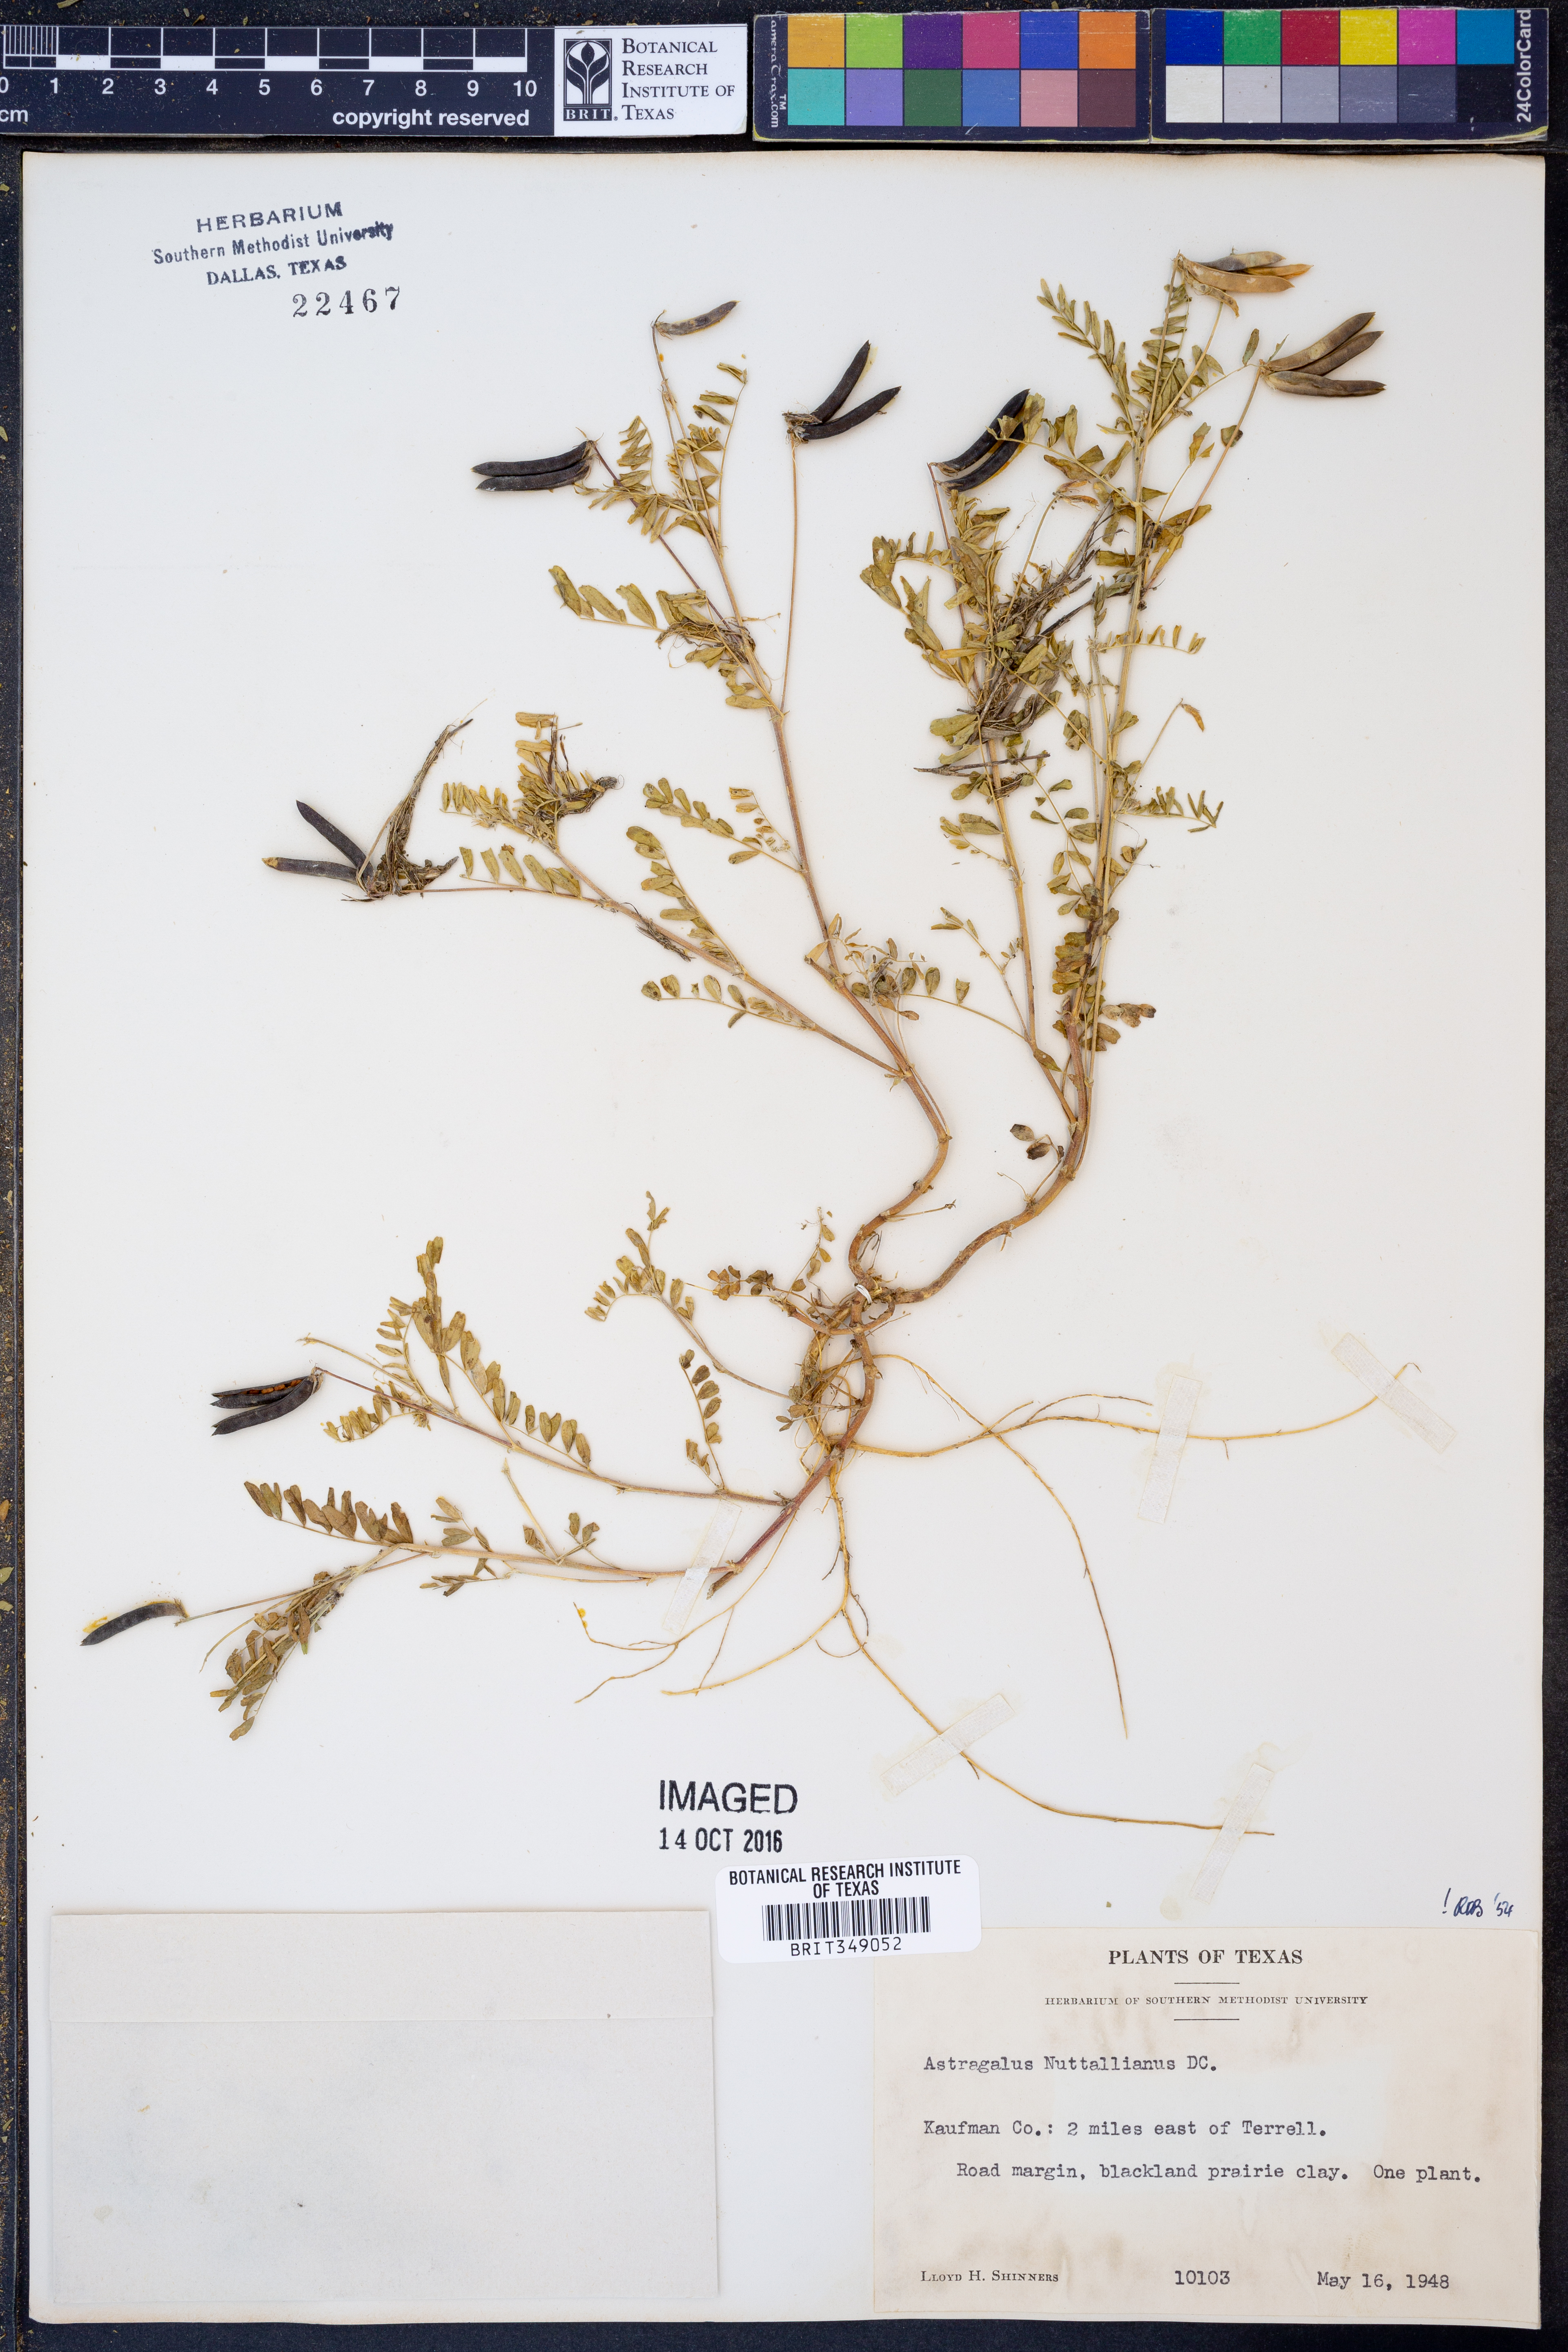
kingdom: Plantae
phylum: Tracheophyta
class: Magnoliopsida
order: Fabales
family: Fabaceae
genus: Astragalus
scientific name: Astragalus nuttallianus
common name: Smallflowered milkvetch
